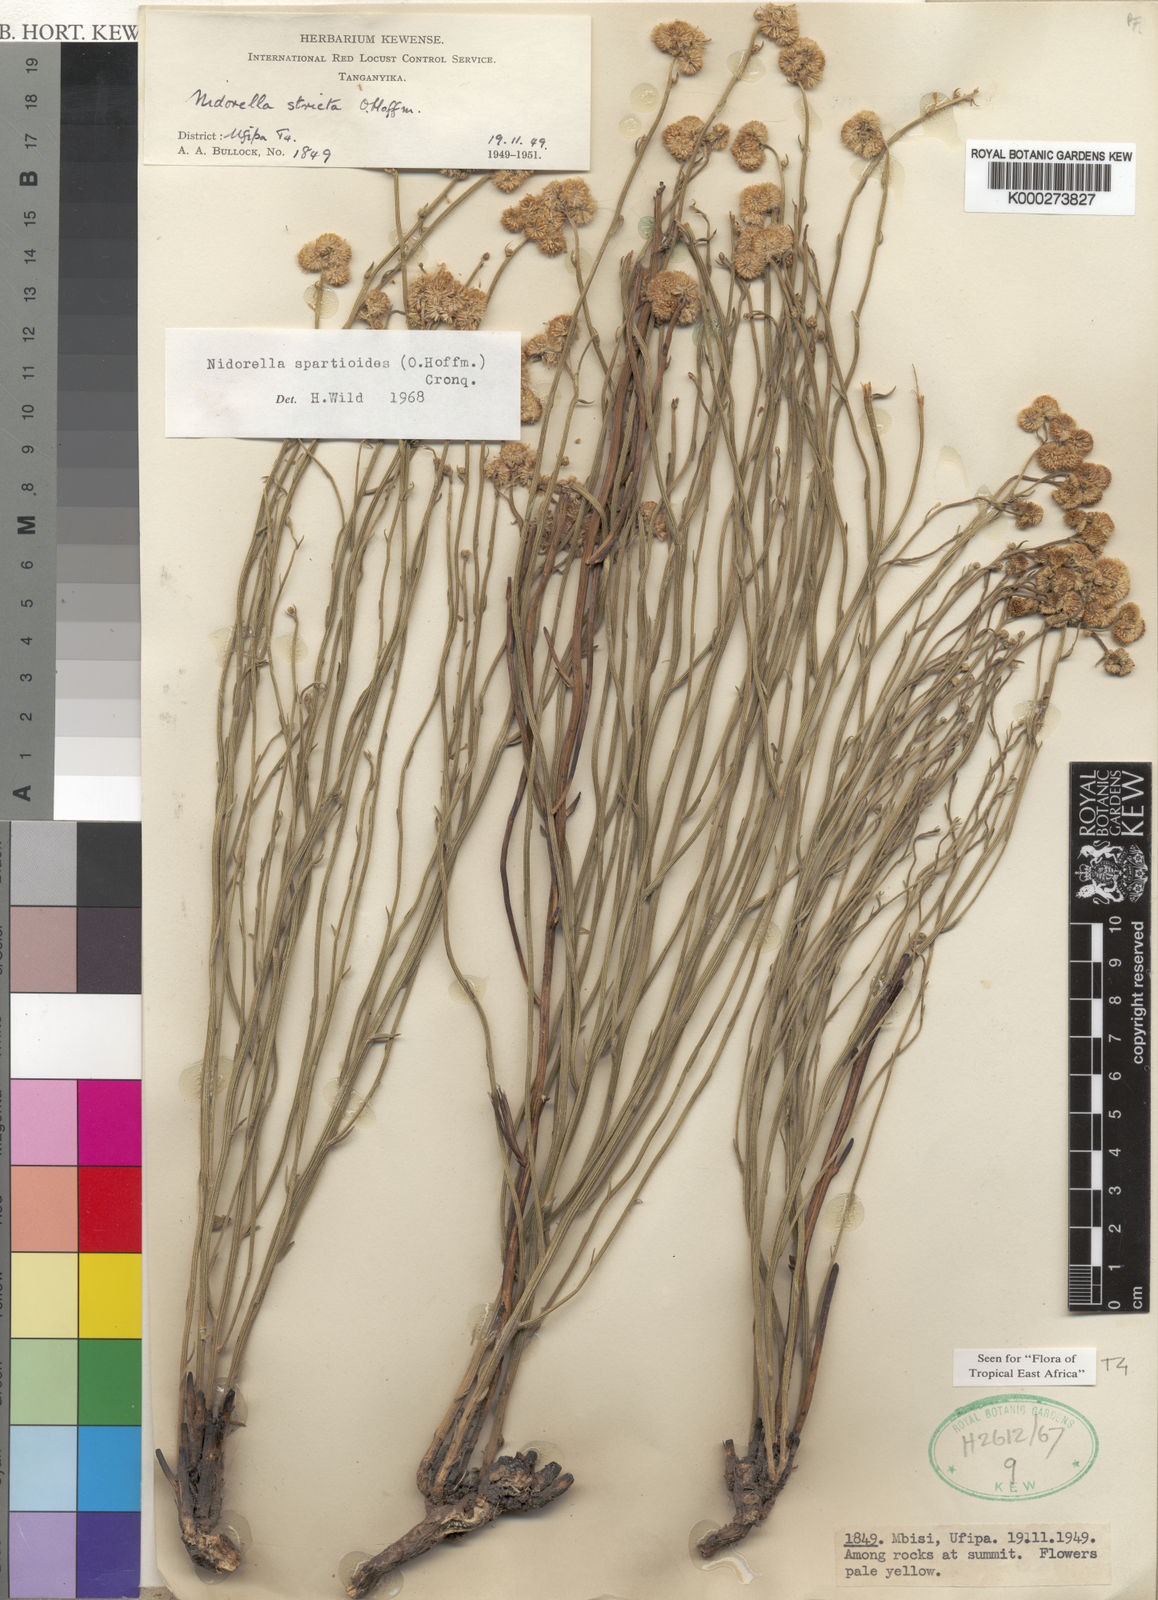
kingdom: Plantae
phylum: Tracheophyta
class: Magnoliopsida
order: Asterales
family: Asteraceae
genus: Nidorella
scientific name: Nidorella spartioides
